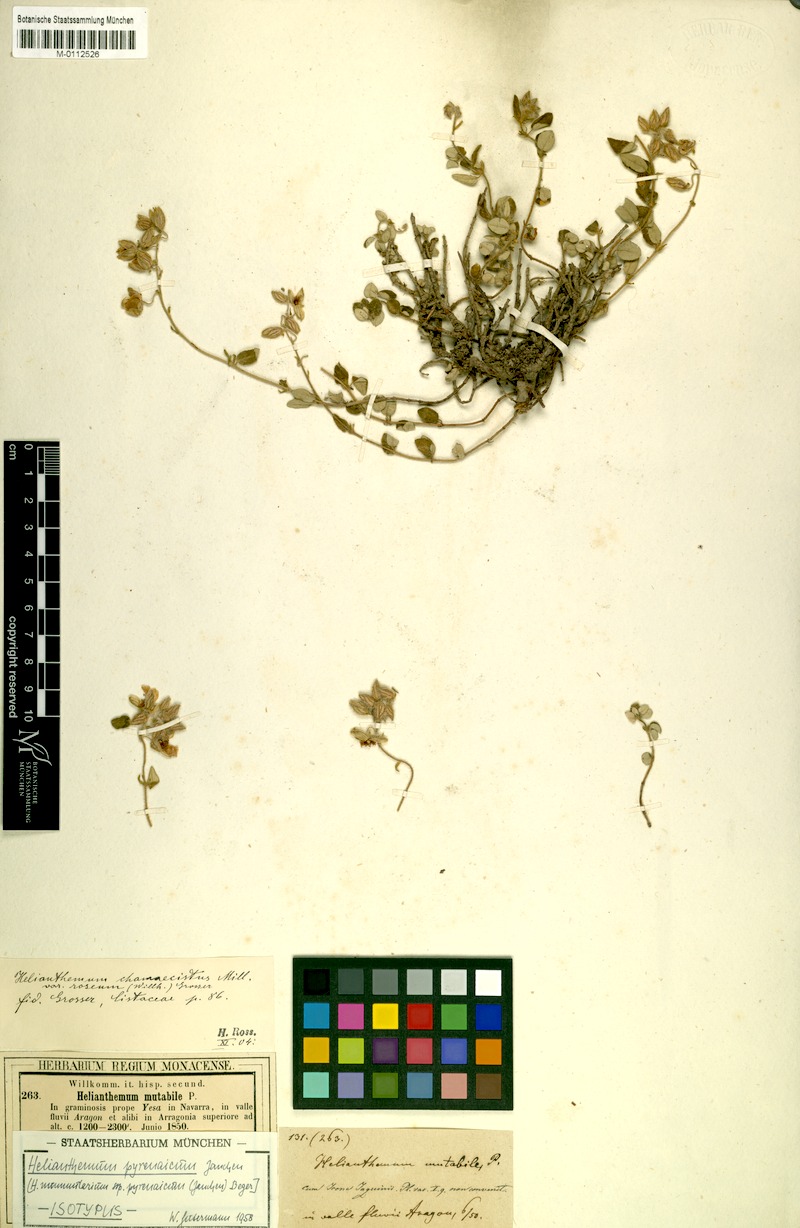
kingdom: Plantae
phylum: Tracheophyta
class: Magnoliopsida
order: Malvales
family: Cistaceae
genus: Helianthemum
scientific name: Helianthemum nummularium
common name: Common rock-rose
